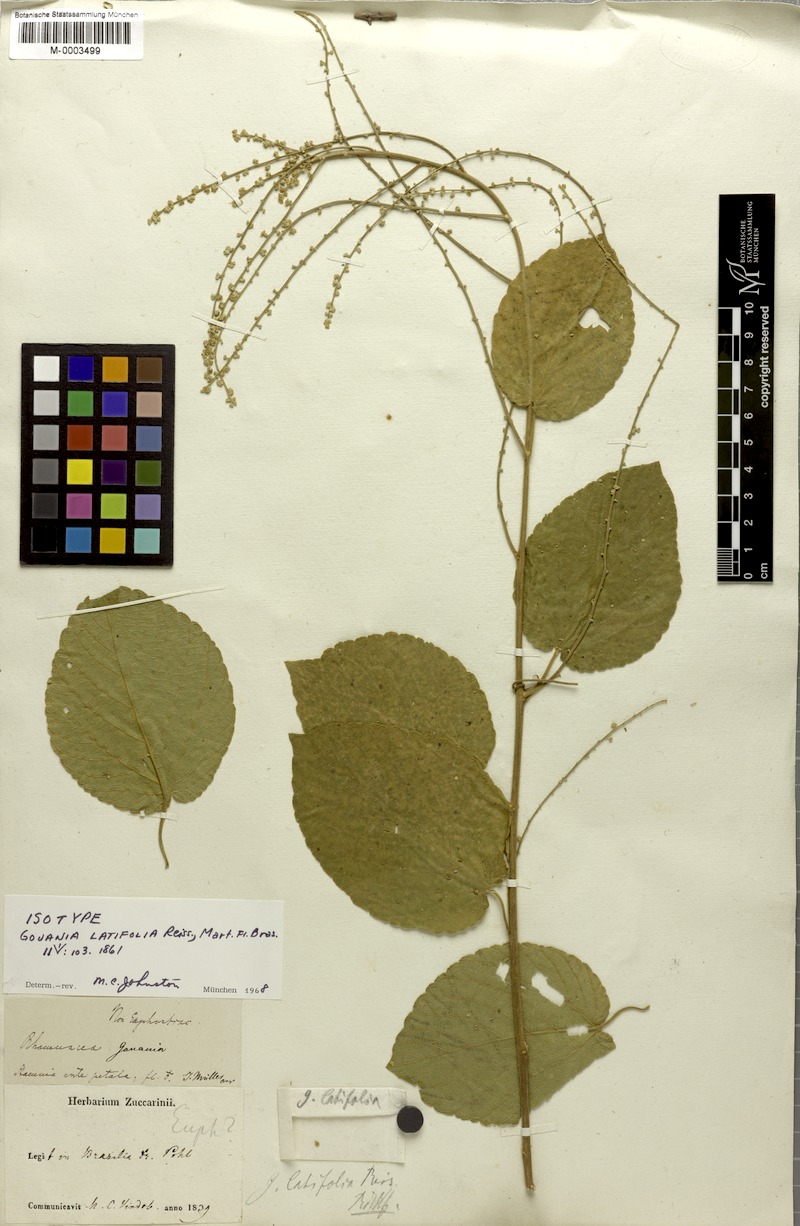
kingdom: Plantae
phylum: Tracheophyta
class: Magnoliopsida
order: Rosales
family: Rhamnaceae
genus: Gouania
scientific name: Gouania latifolia
